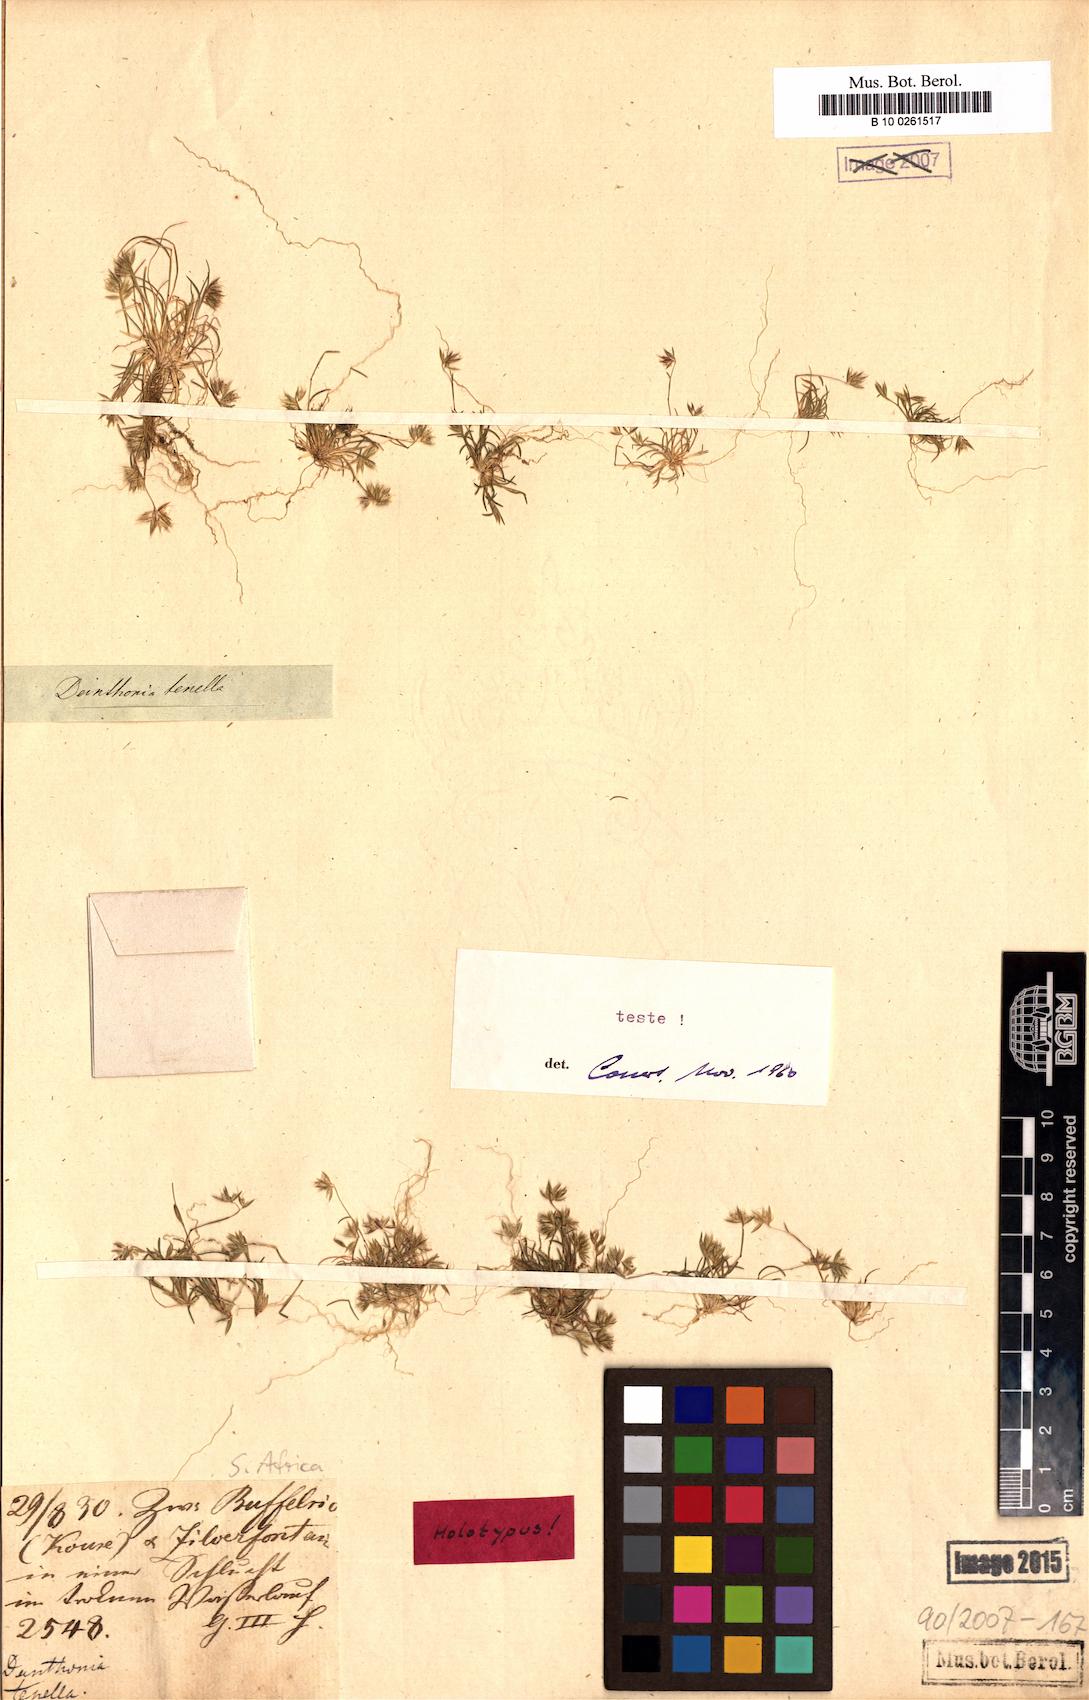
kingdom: Plantae
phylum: Tracheophyta
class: Liliopsida
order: Poales
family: Poaceae
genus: Tribolium
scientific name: Tribolium tenellum
